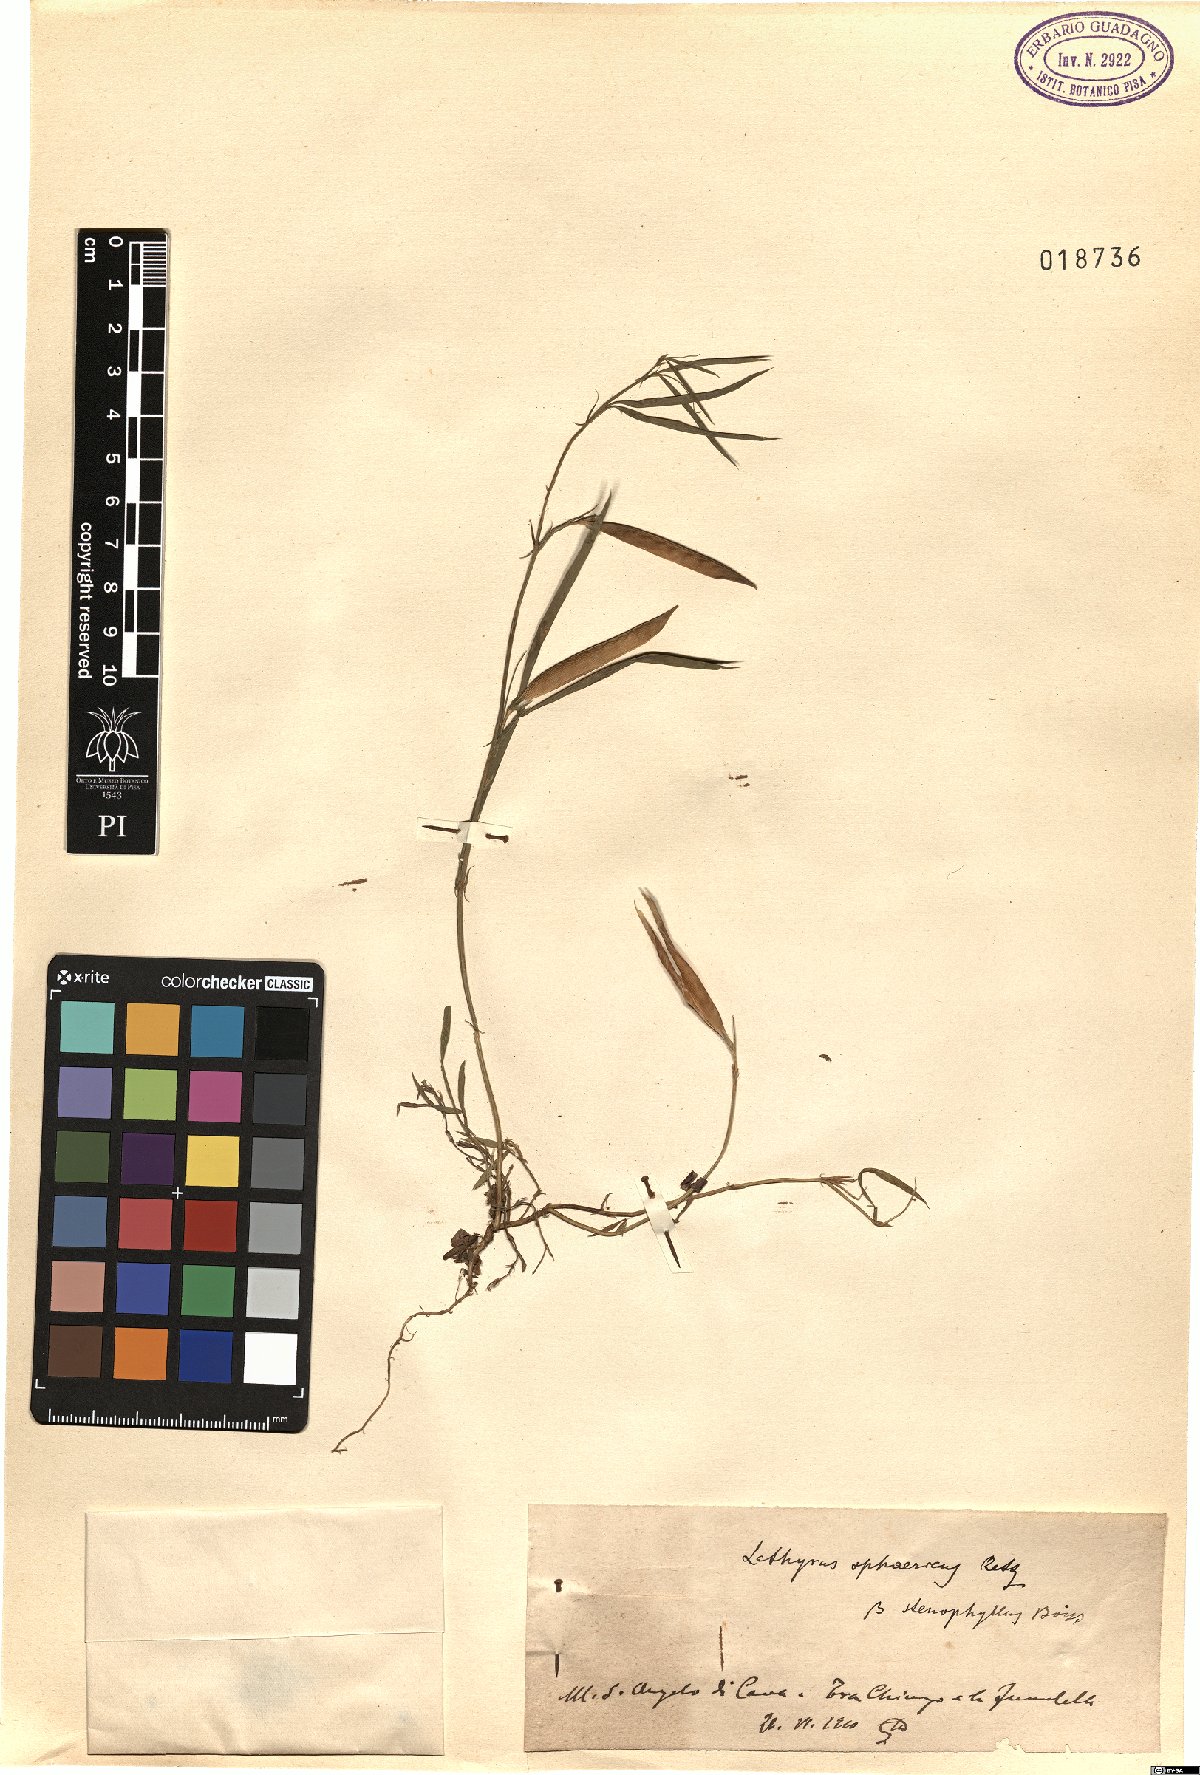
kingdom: Plantae
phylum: Tracheophyta
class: Magnoliopsida
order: Fabales
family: Fabaceae
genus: Lathyrus
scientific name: Lathyrus sphaericus
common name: Grass pea
